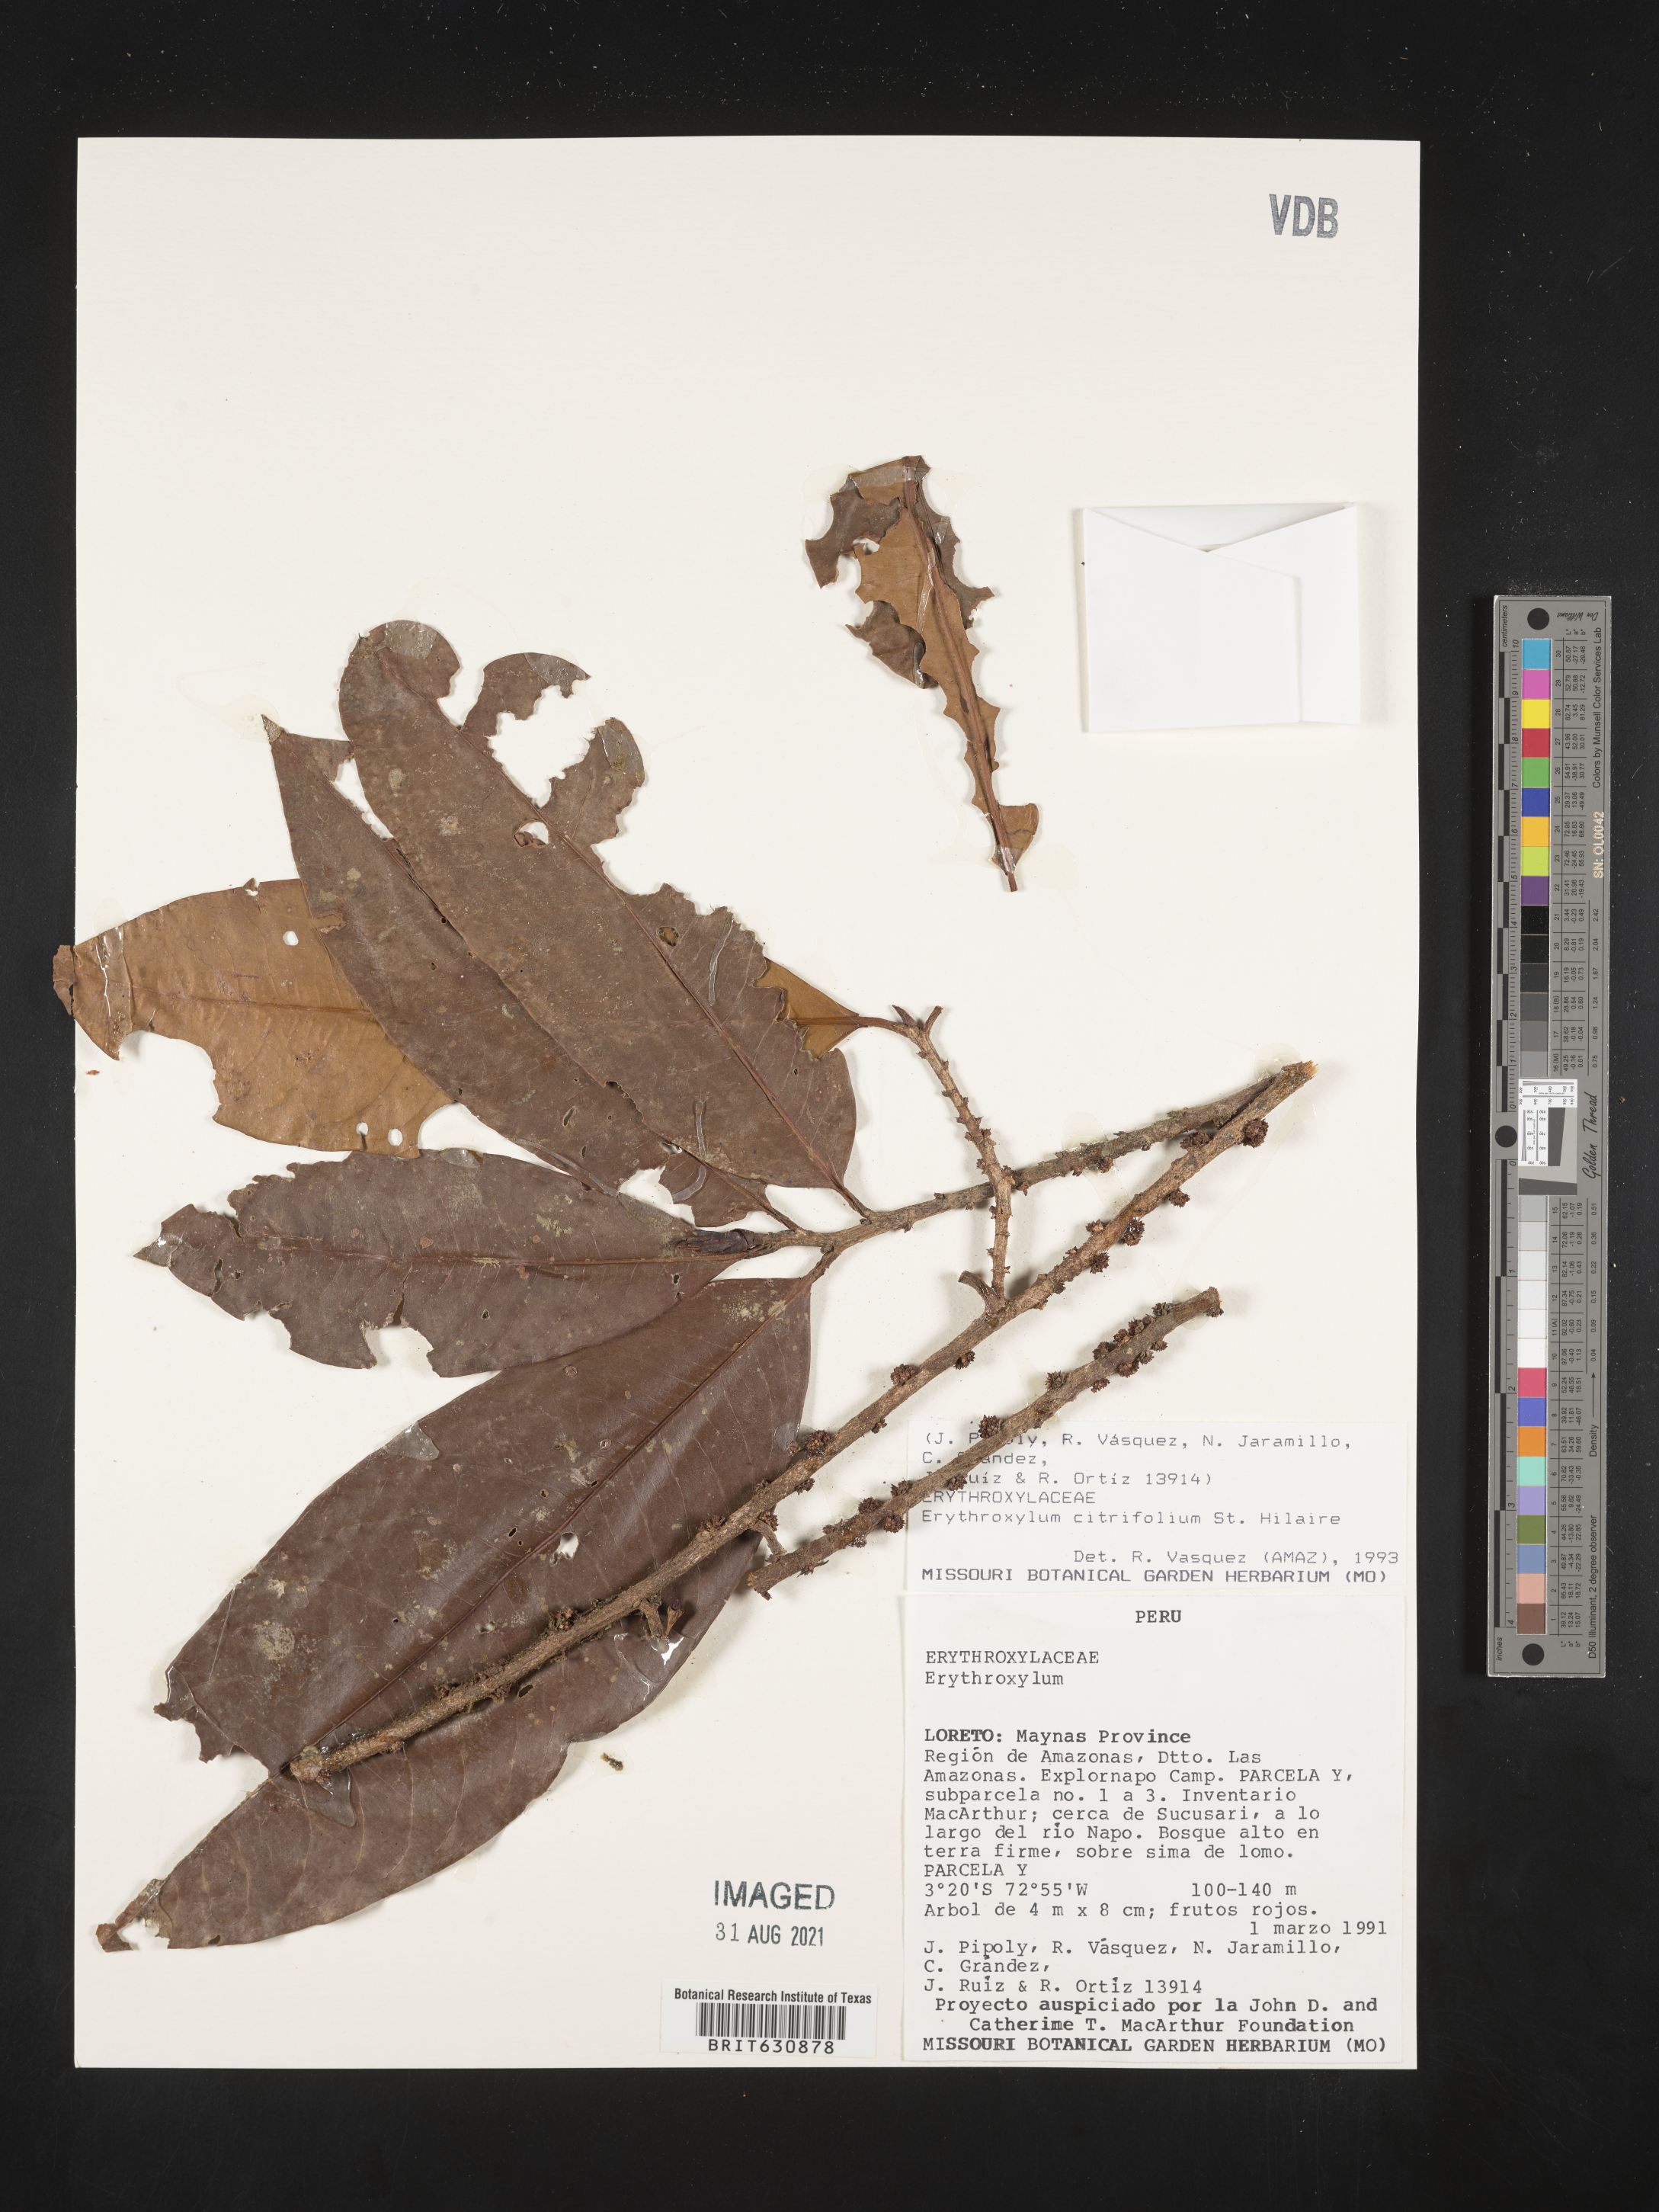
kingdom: Plantae
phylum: Tracheophyta
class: Magnoliopsida
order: Malpighiales
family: Erythroxylaceae
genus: Erythroxylum
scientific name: Erythroxylum
